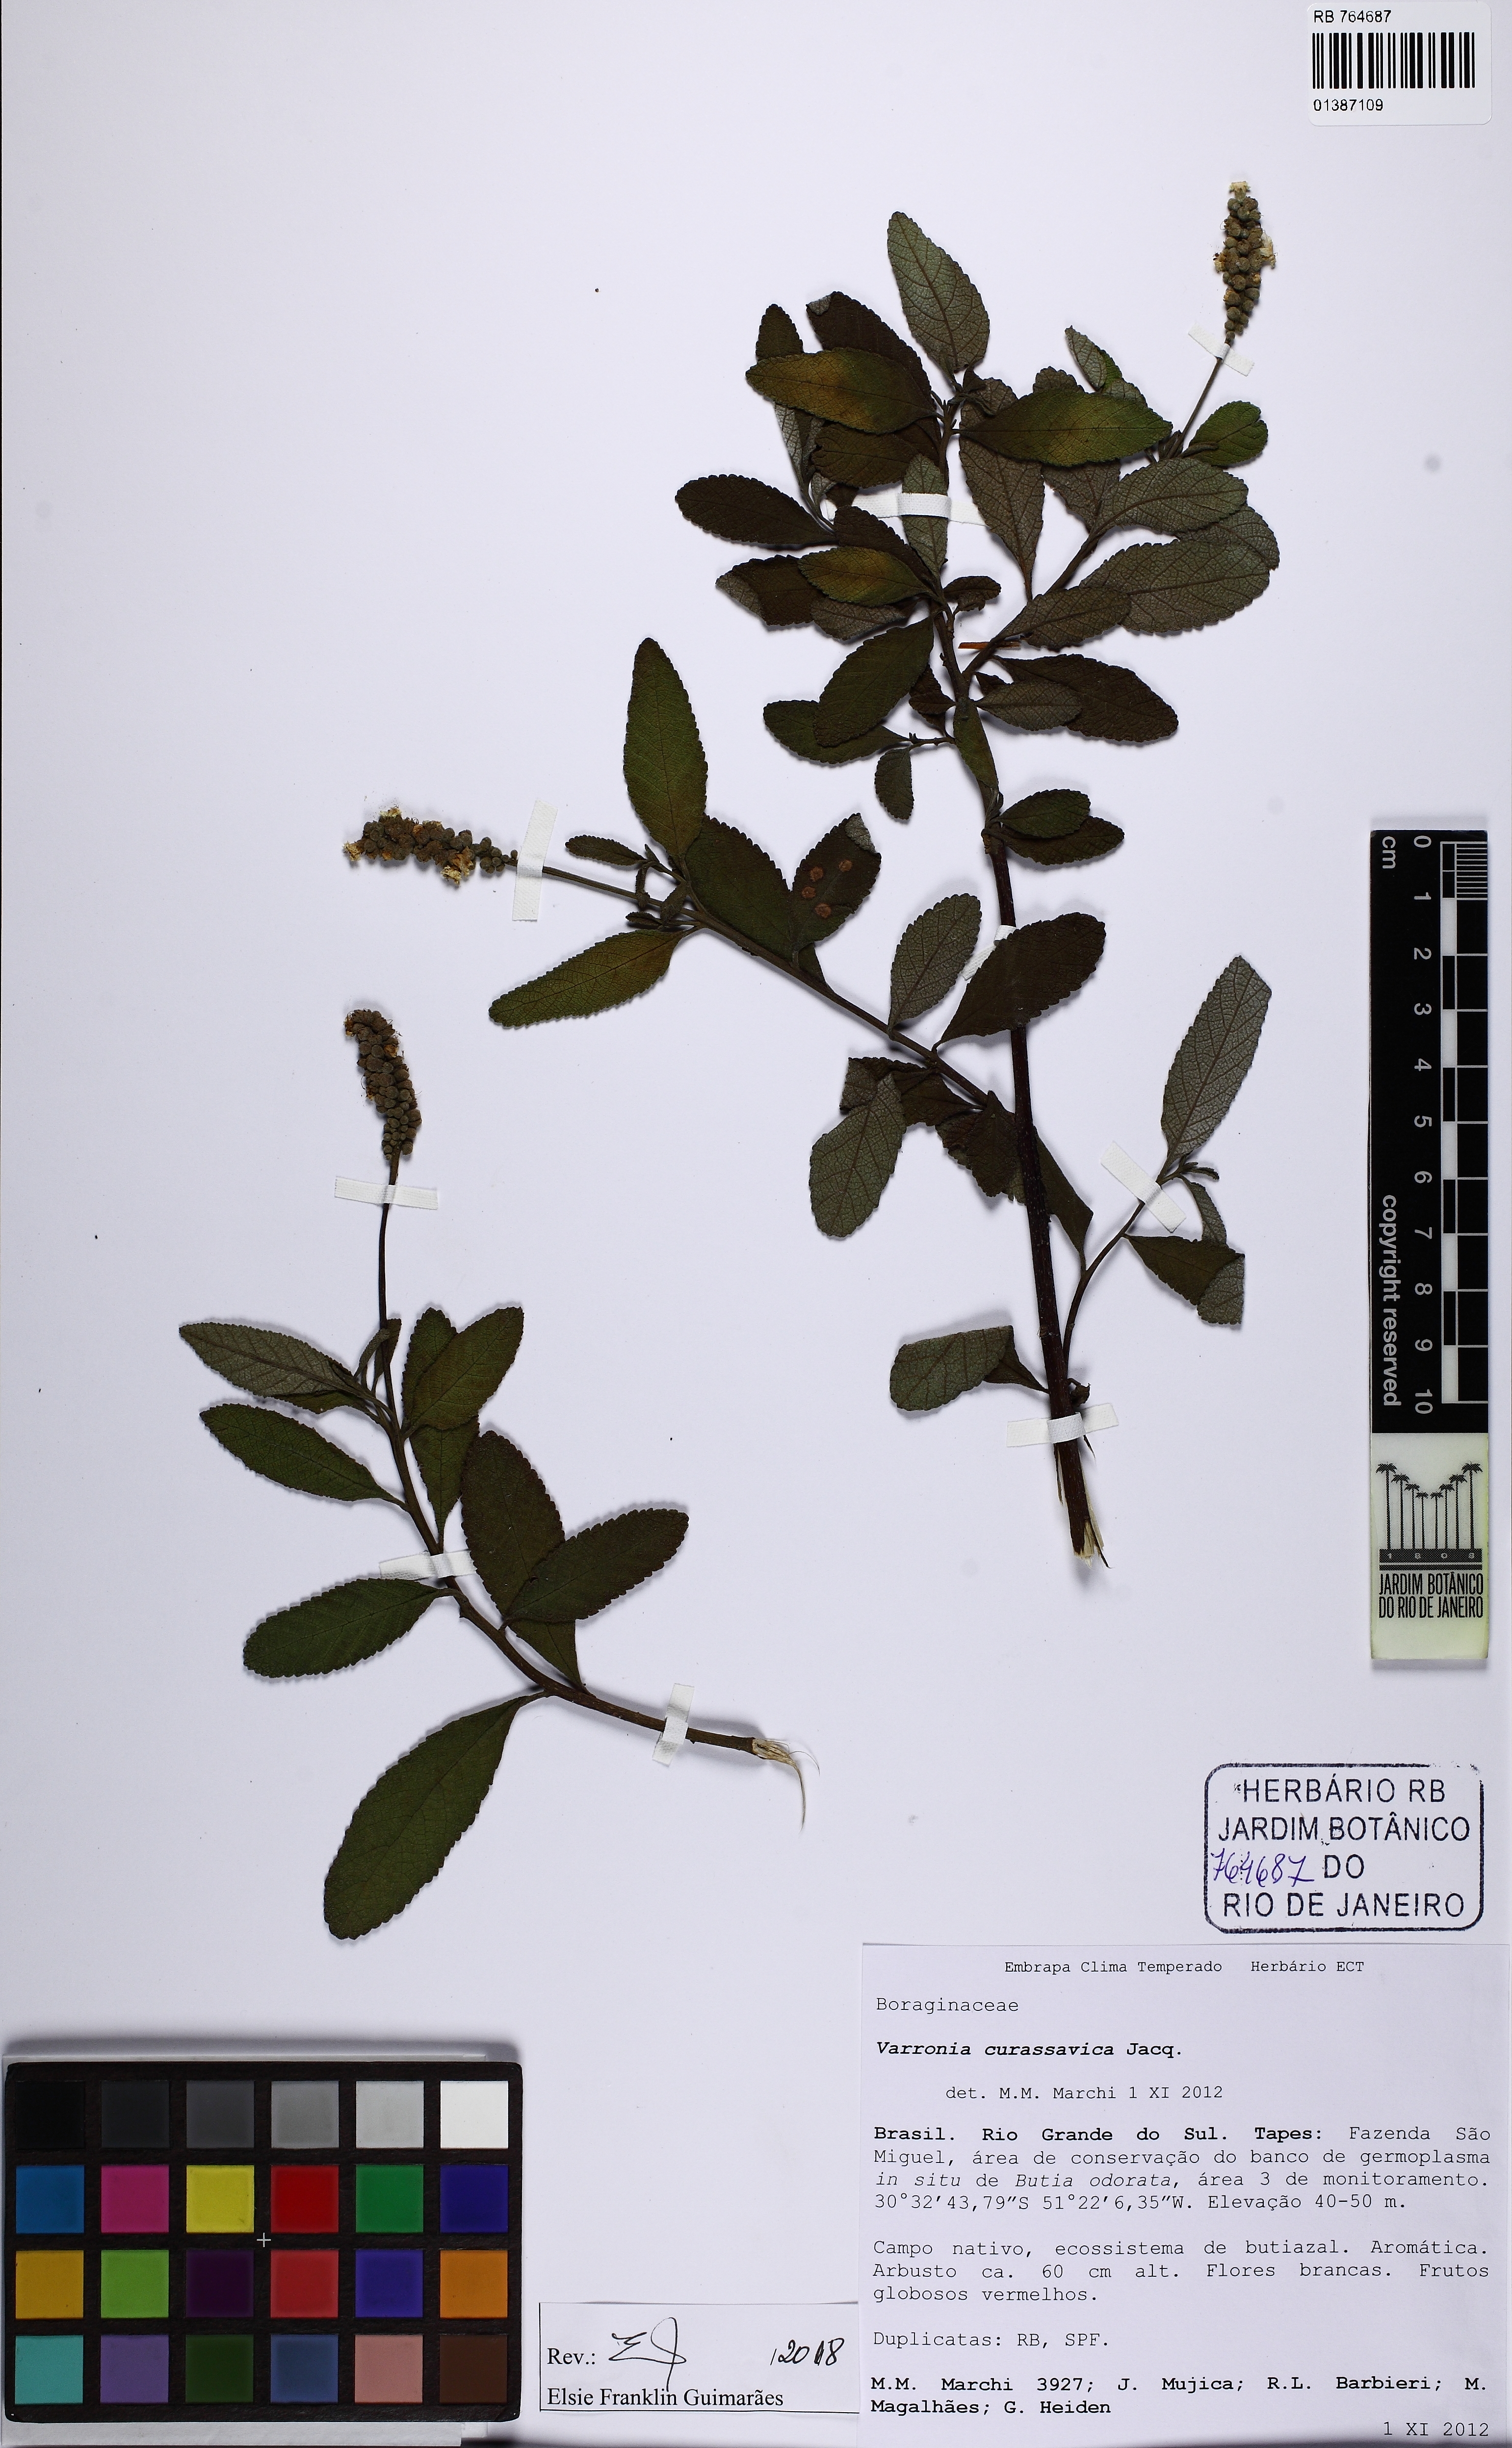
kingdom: Plantae
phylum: Tracheophyta
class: Magnoliopsida
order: Boraginales
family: Cordiaceae
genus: Varronia
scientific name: Varronia curassavica
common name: Black sage
